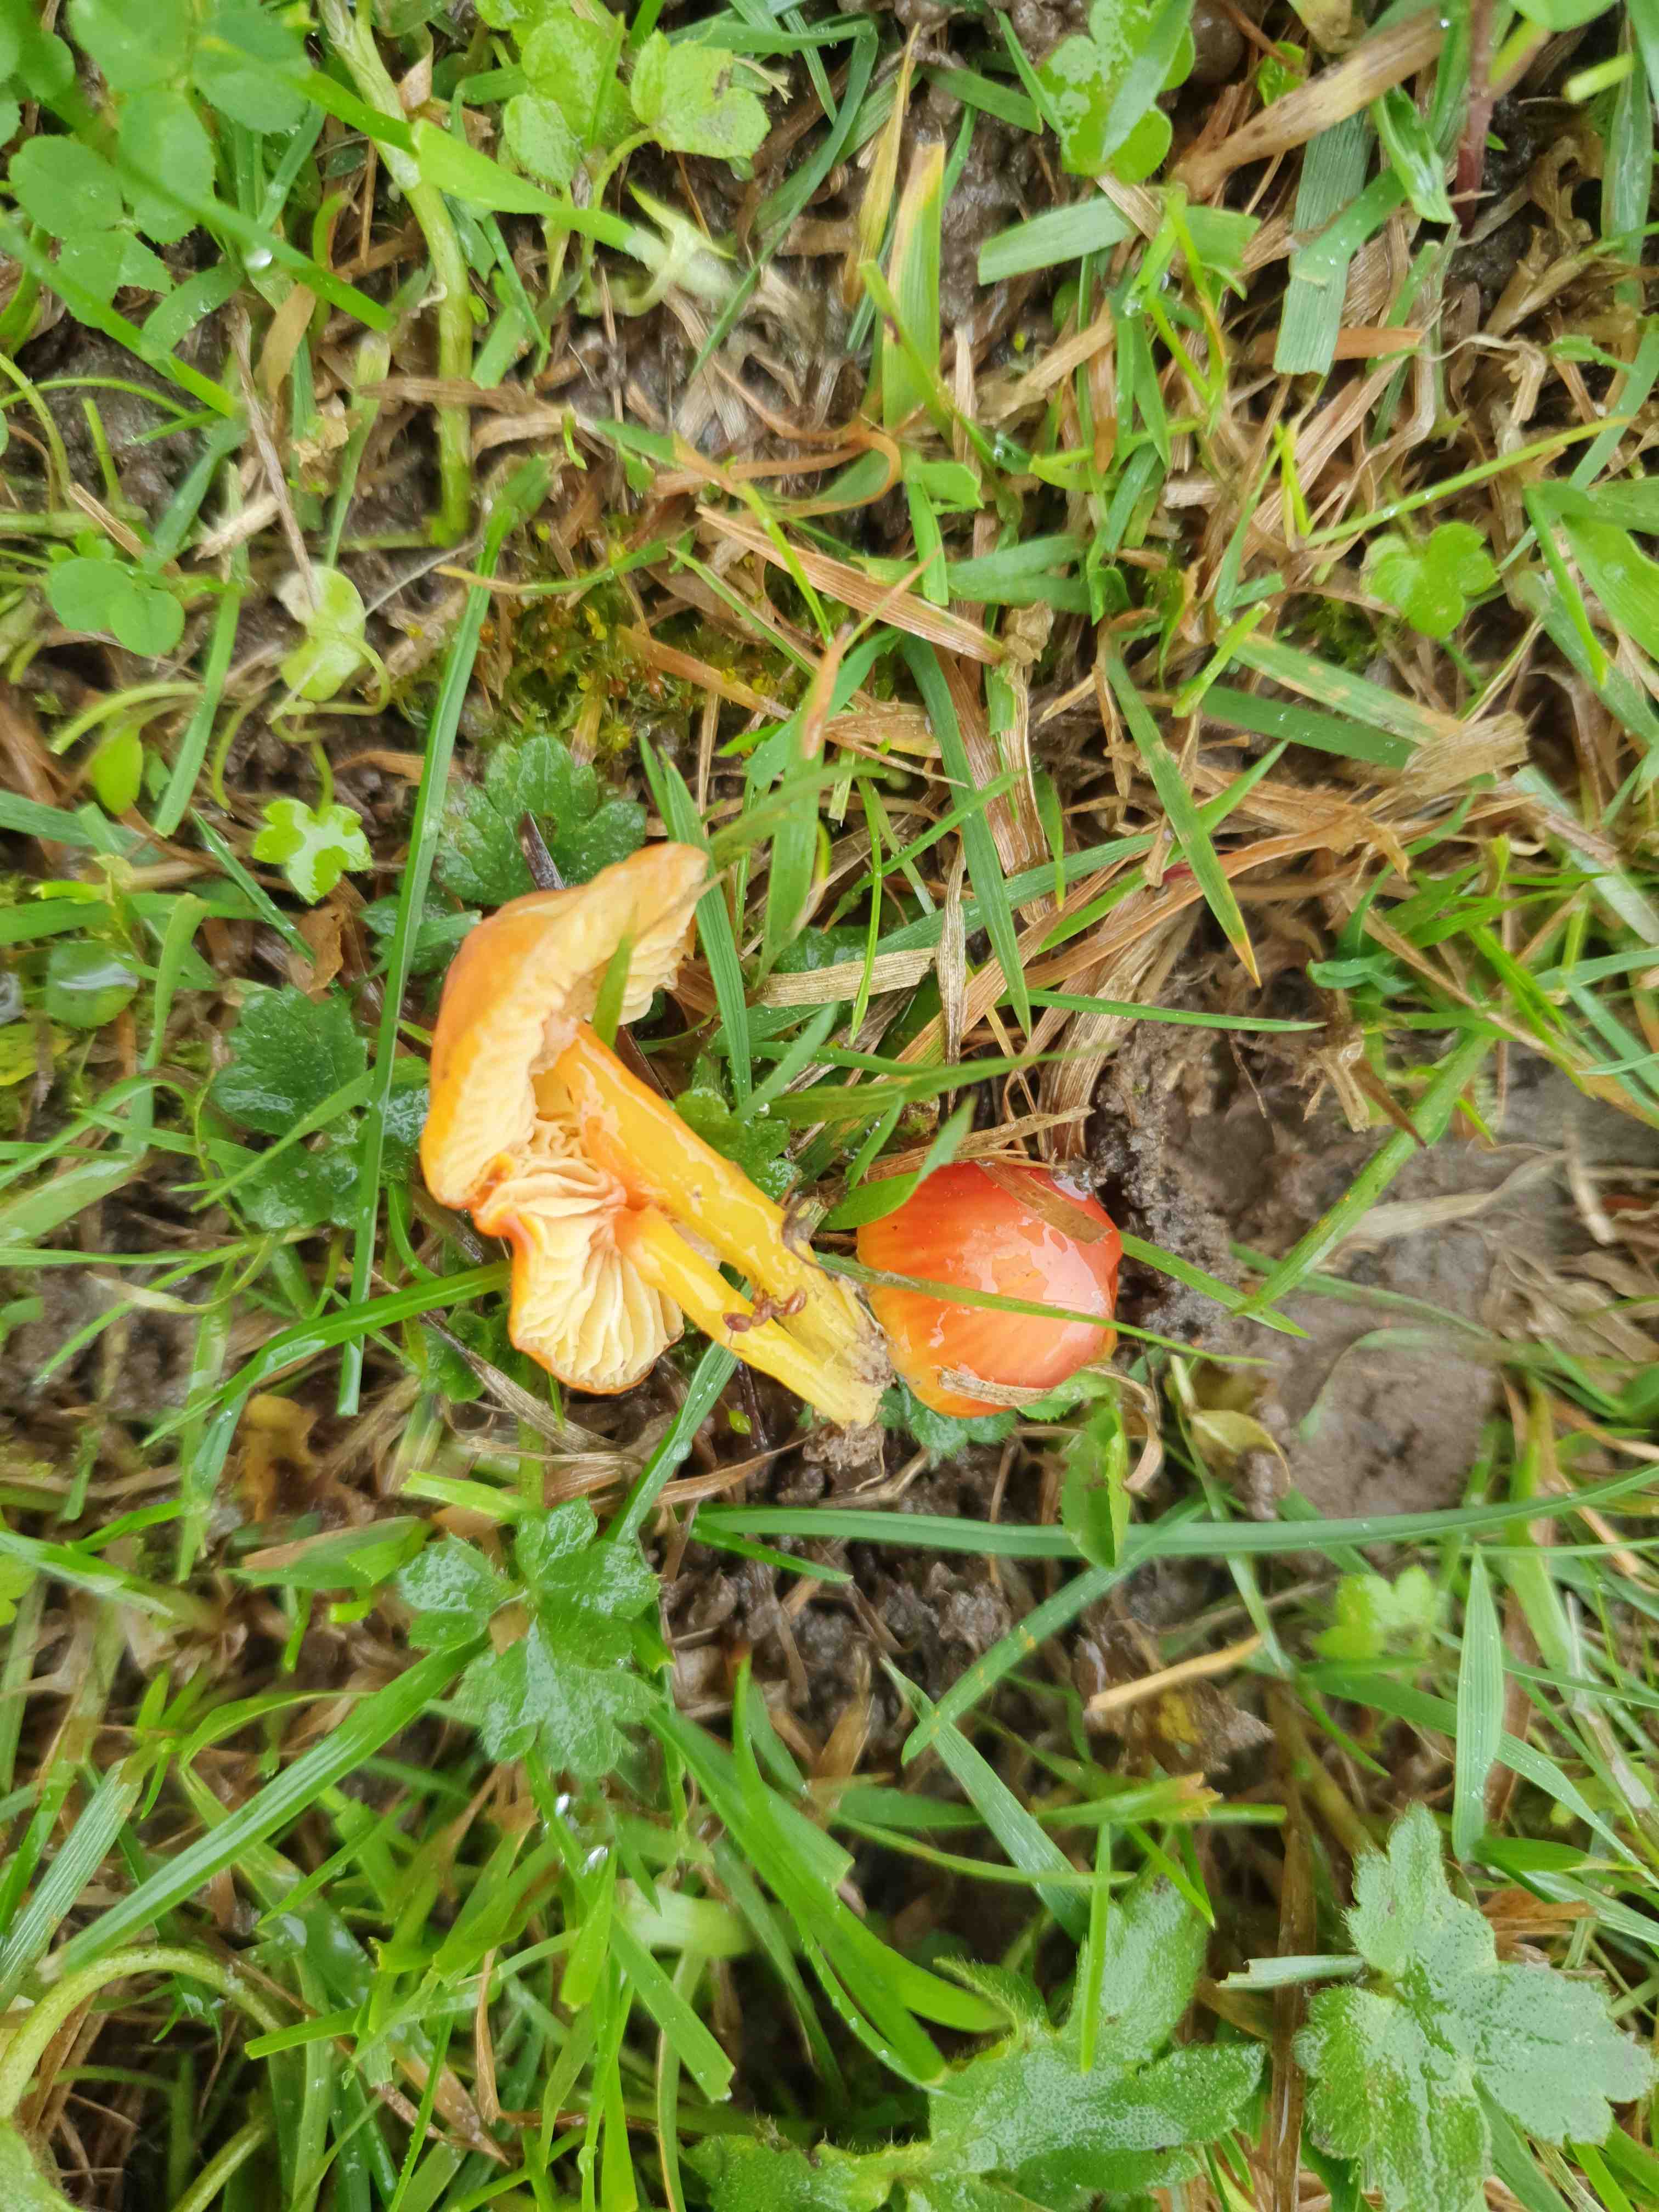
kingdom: Fungi
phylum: Basidiomycota
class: Agaricomycetes
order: Agaricales
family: Hygrophoraceae
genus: Hygrocybe
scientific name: Hygrocybe glutinipes
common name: slimstokket vokshat
